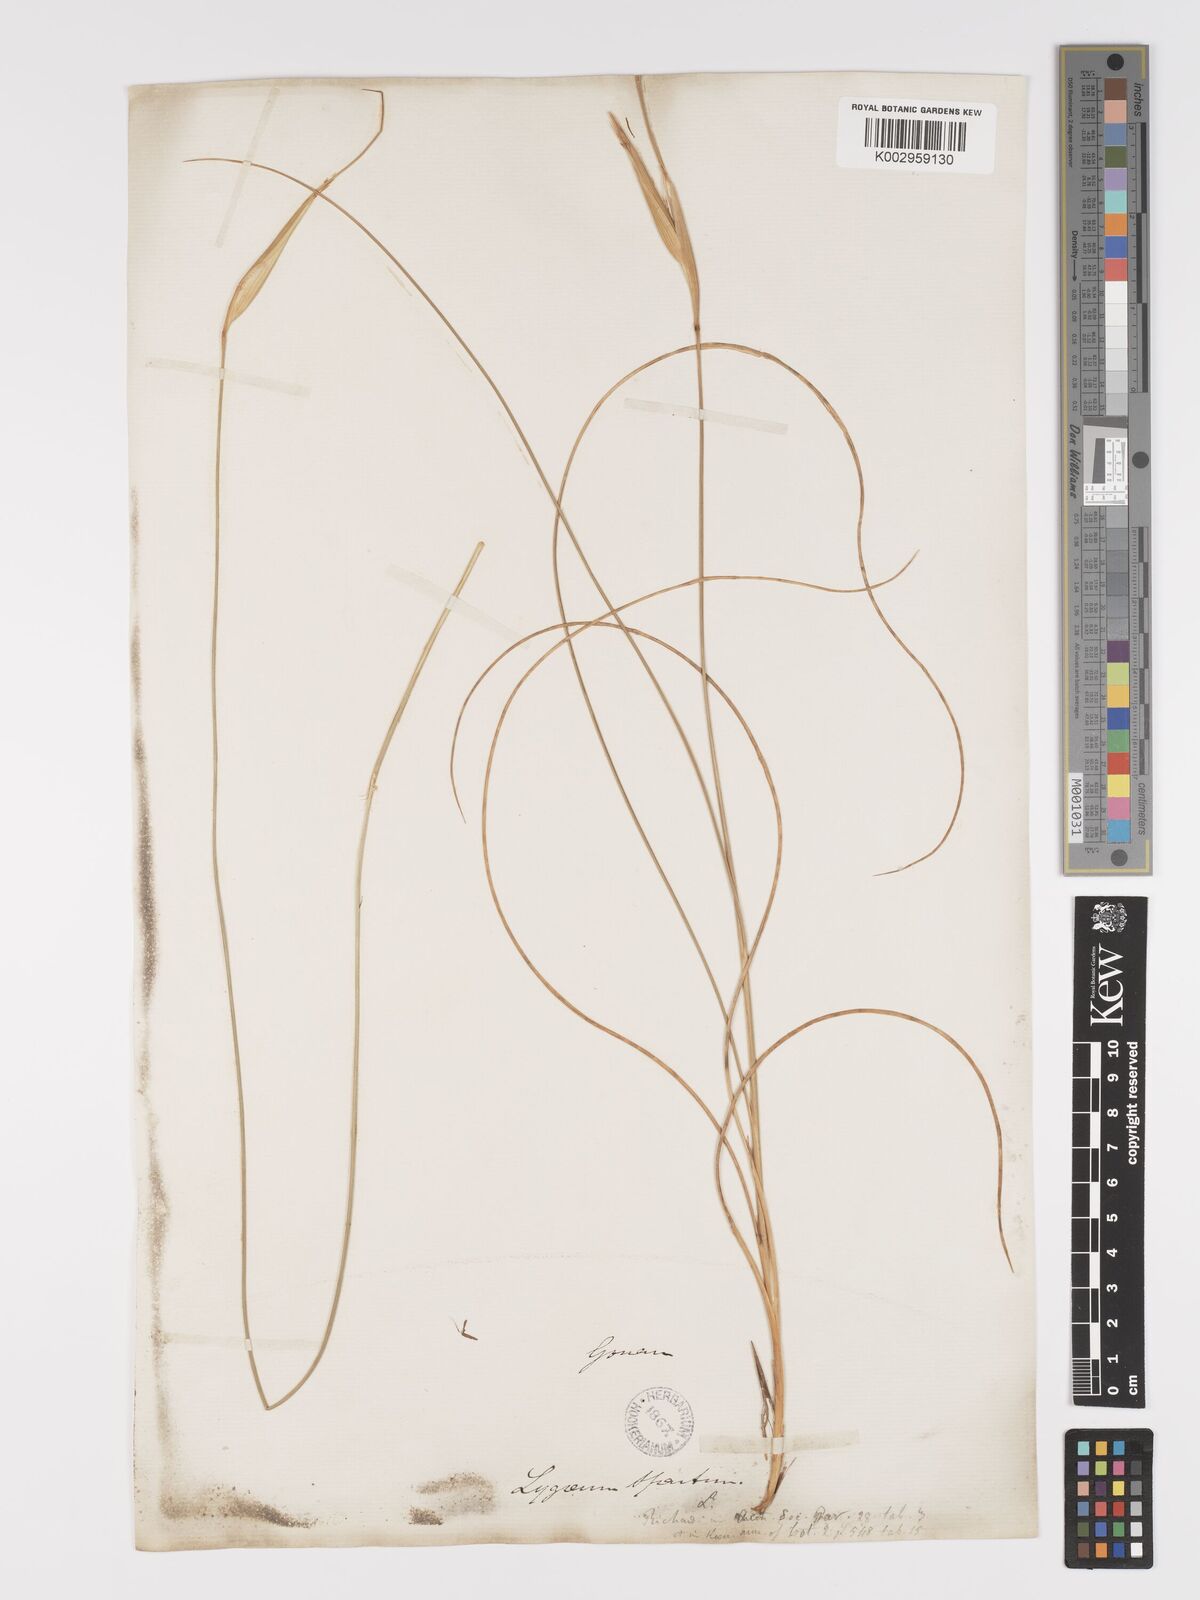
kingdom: Plantae
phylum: Tracheophyta
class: Liliopsida
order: Poales
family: Poaceae
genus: Lygeum
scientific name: Lygeum spartum
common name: Albardine
